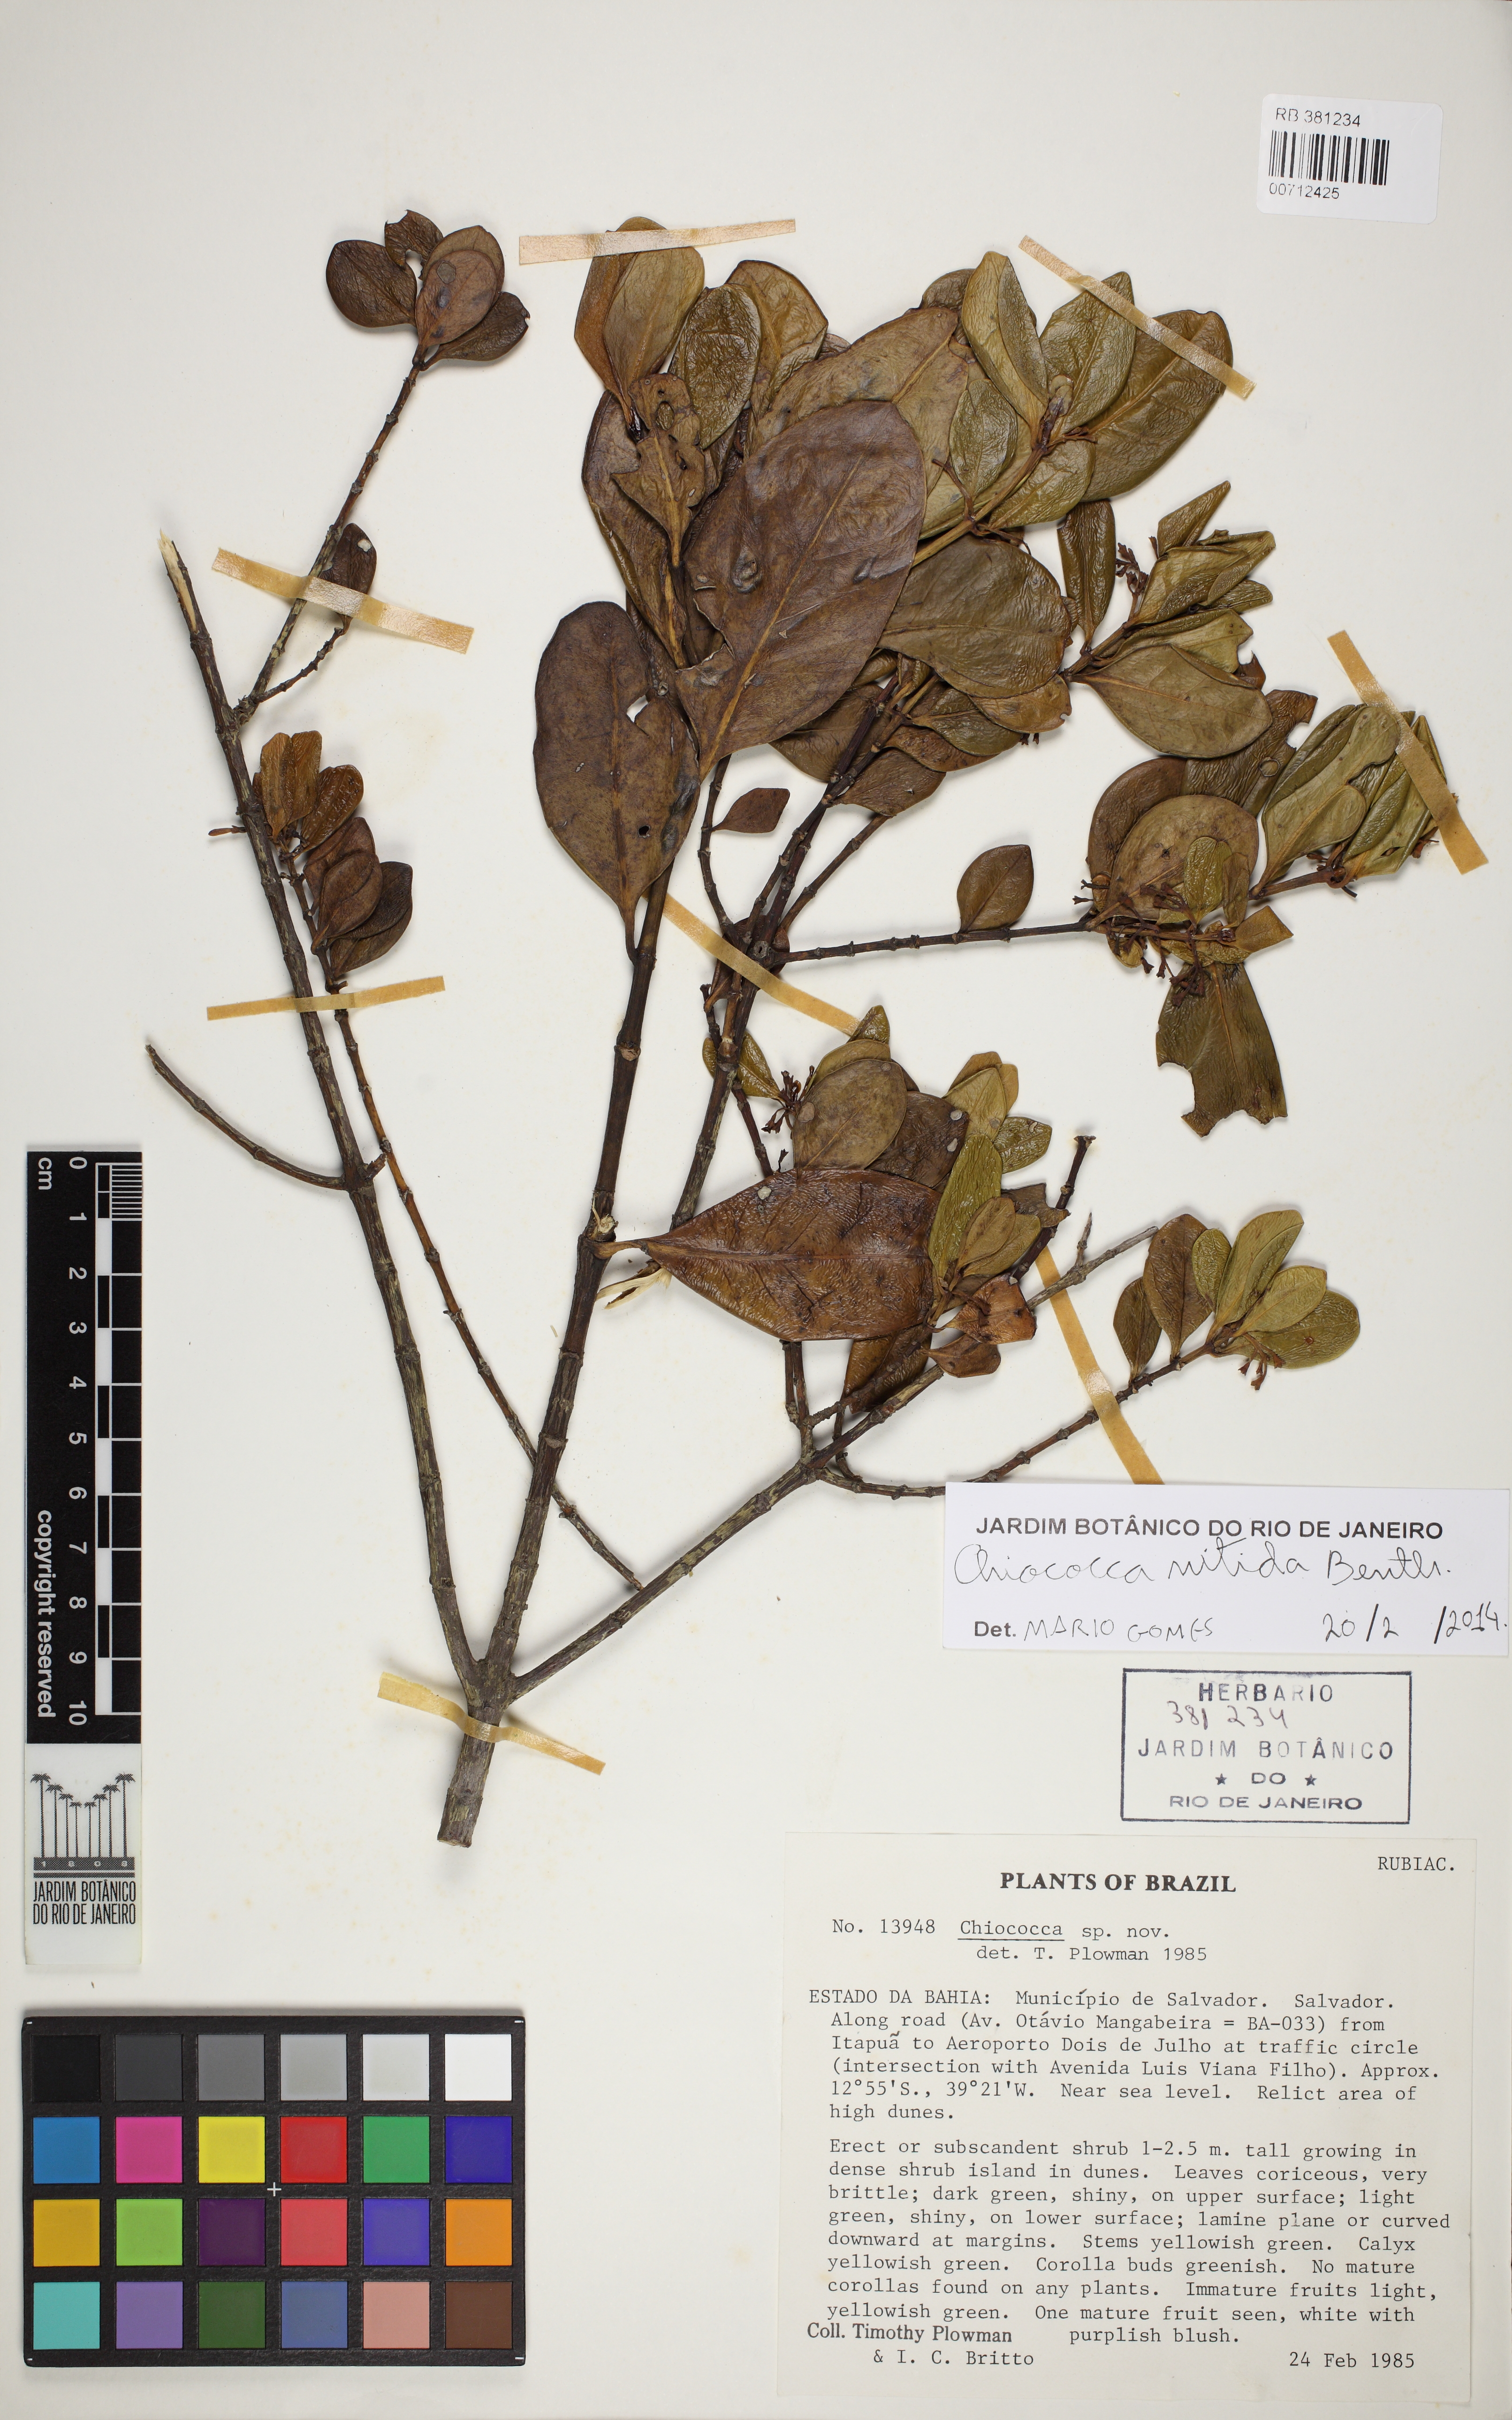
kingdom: Plantae
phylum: Tracheophyta
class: Magnoliopsida
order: Gentianales
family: Rubiaceae
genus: Salzmannia
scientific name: Salzmannia plowmanii
